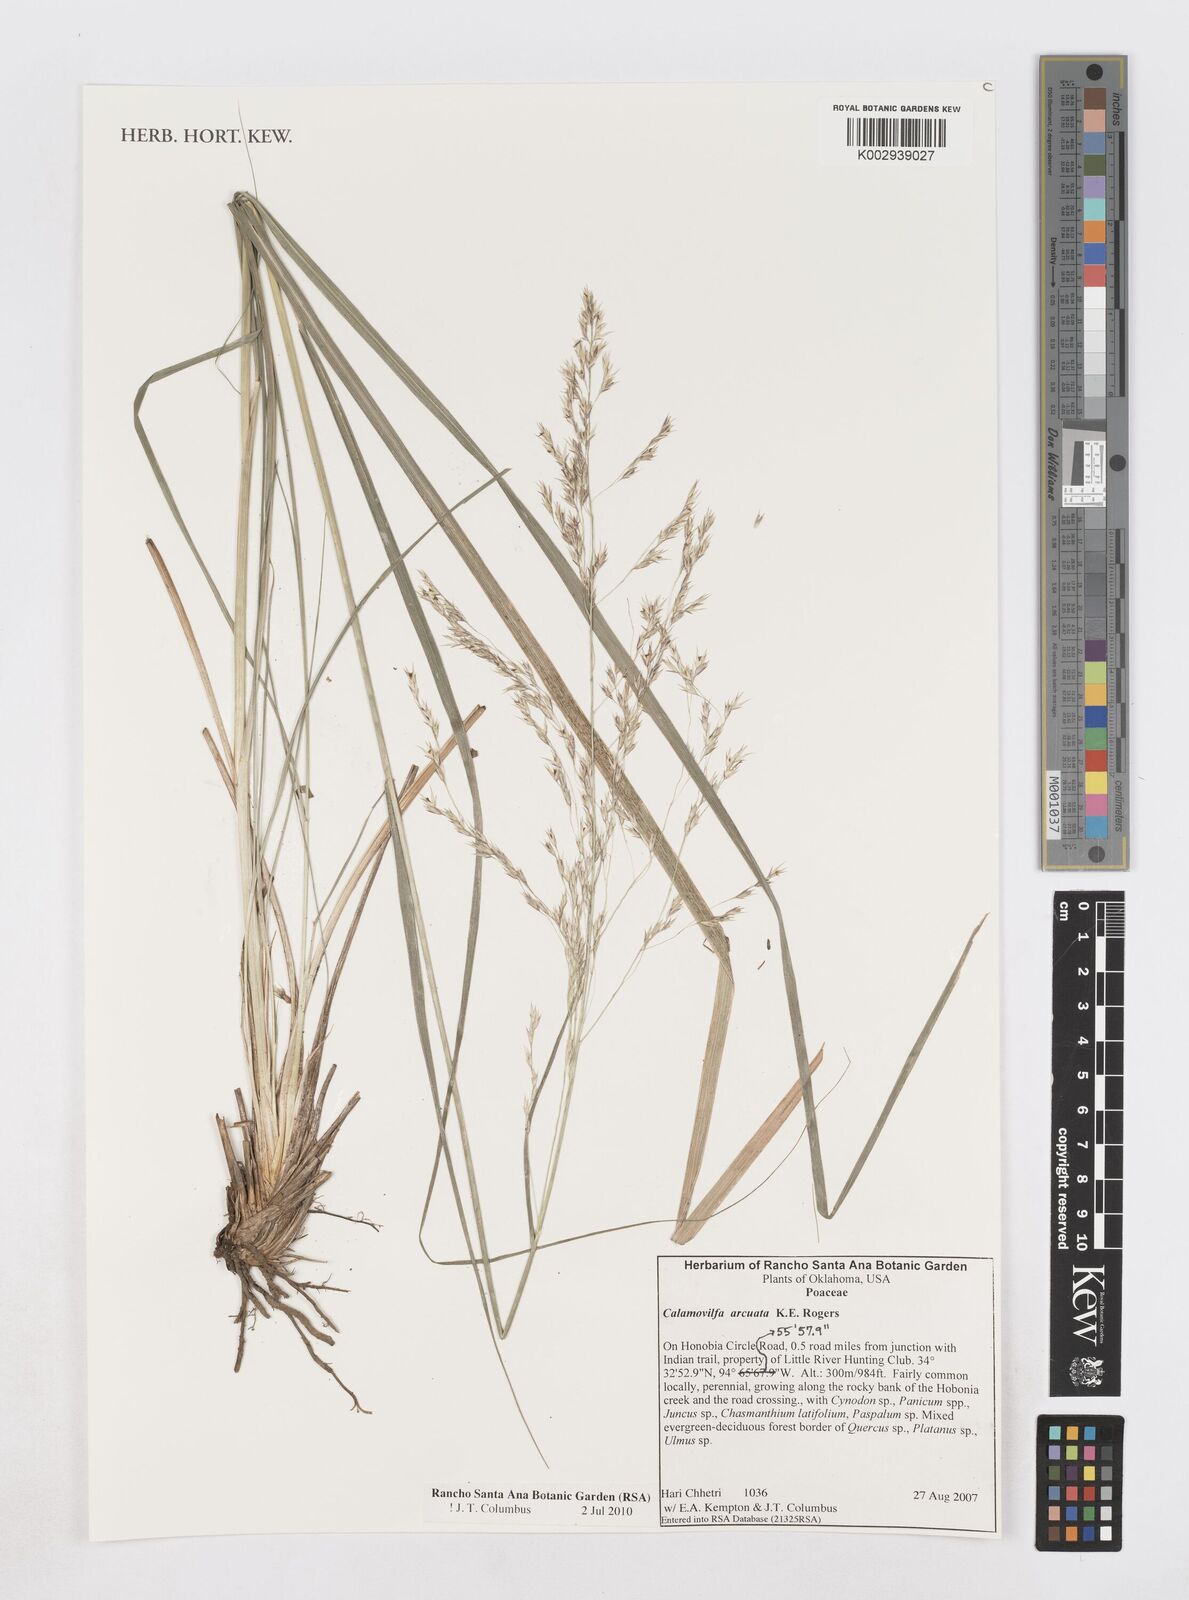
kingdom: Plantae
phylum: Tracheophyta
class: Liliopsida
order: Poales
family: Poaceae
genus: Sporobolus
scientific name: Sporobolus arcuatus
